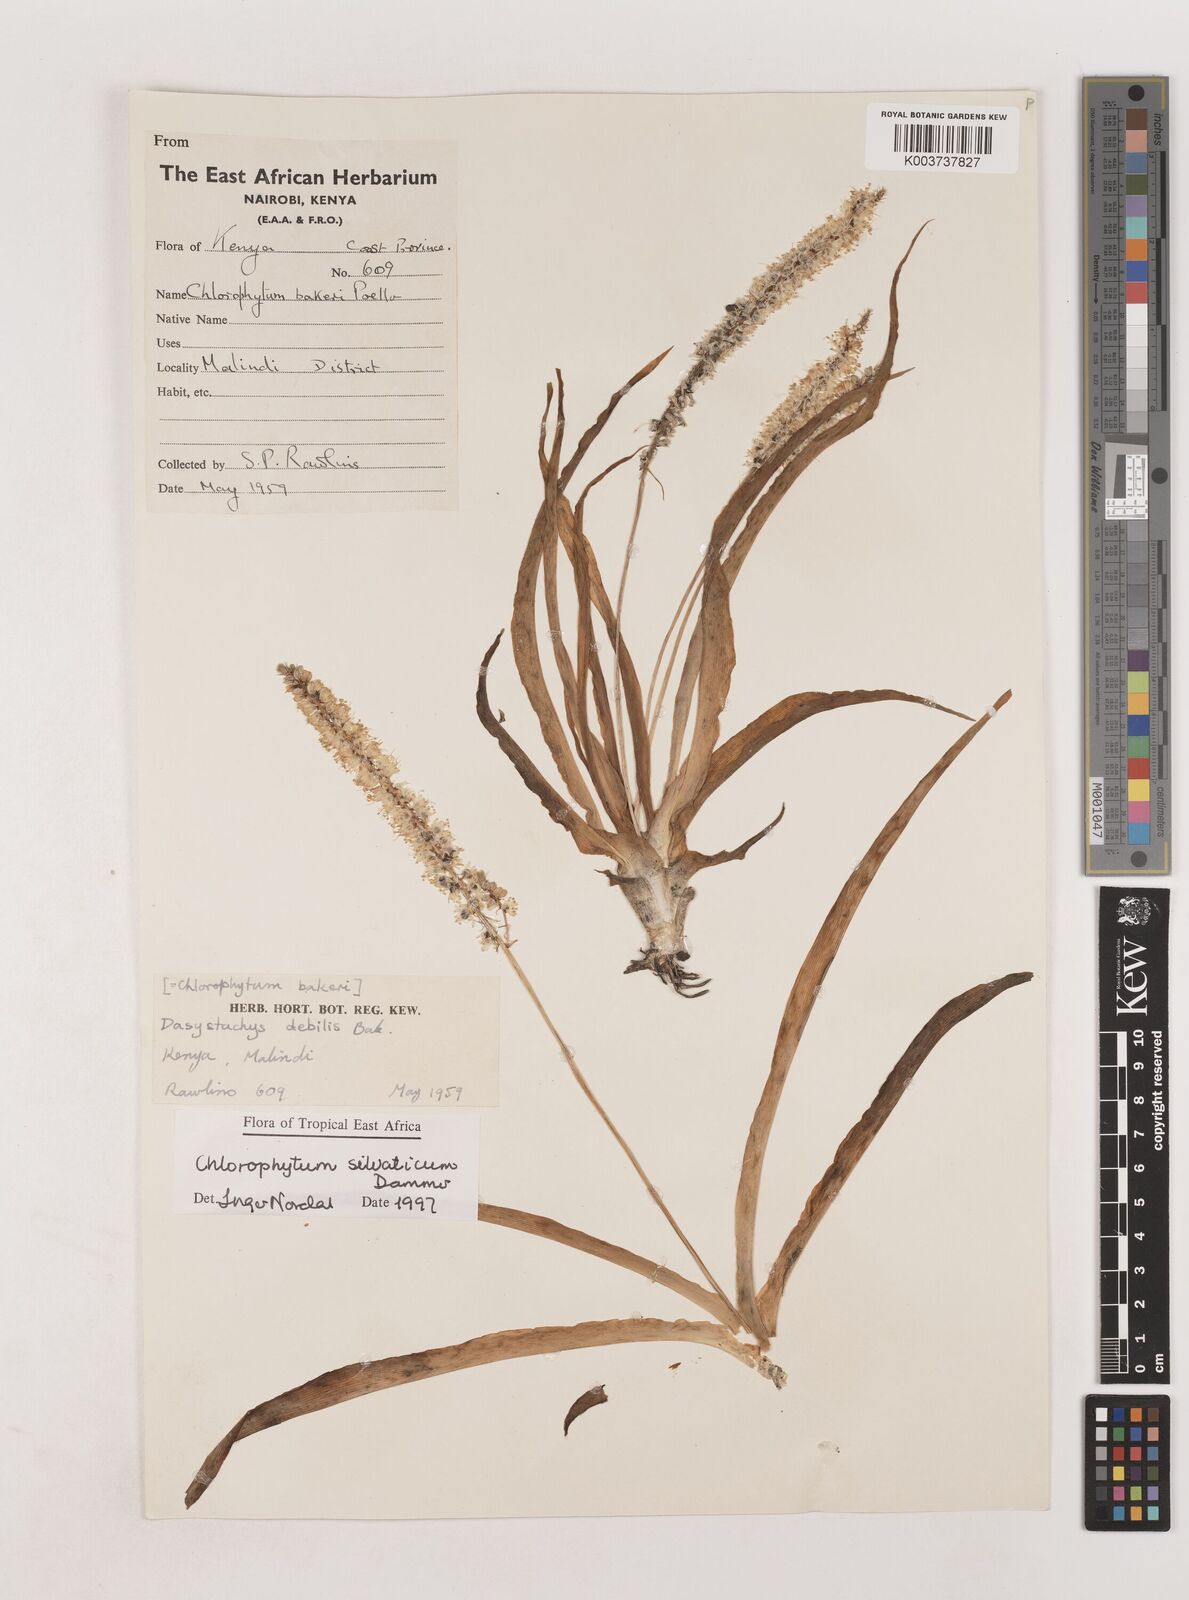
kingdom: Plantae
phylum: Tracheophyta
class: Liliopsida
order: Asparagales
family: Asparagaceae
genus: Chlorophytum
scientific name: Chlorophytum africanum
